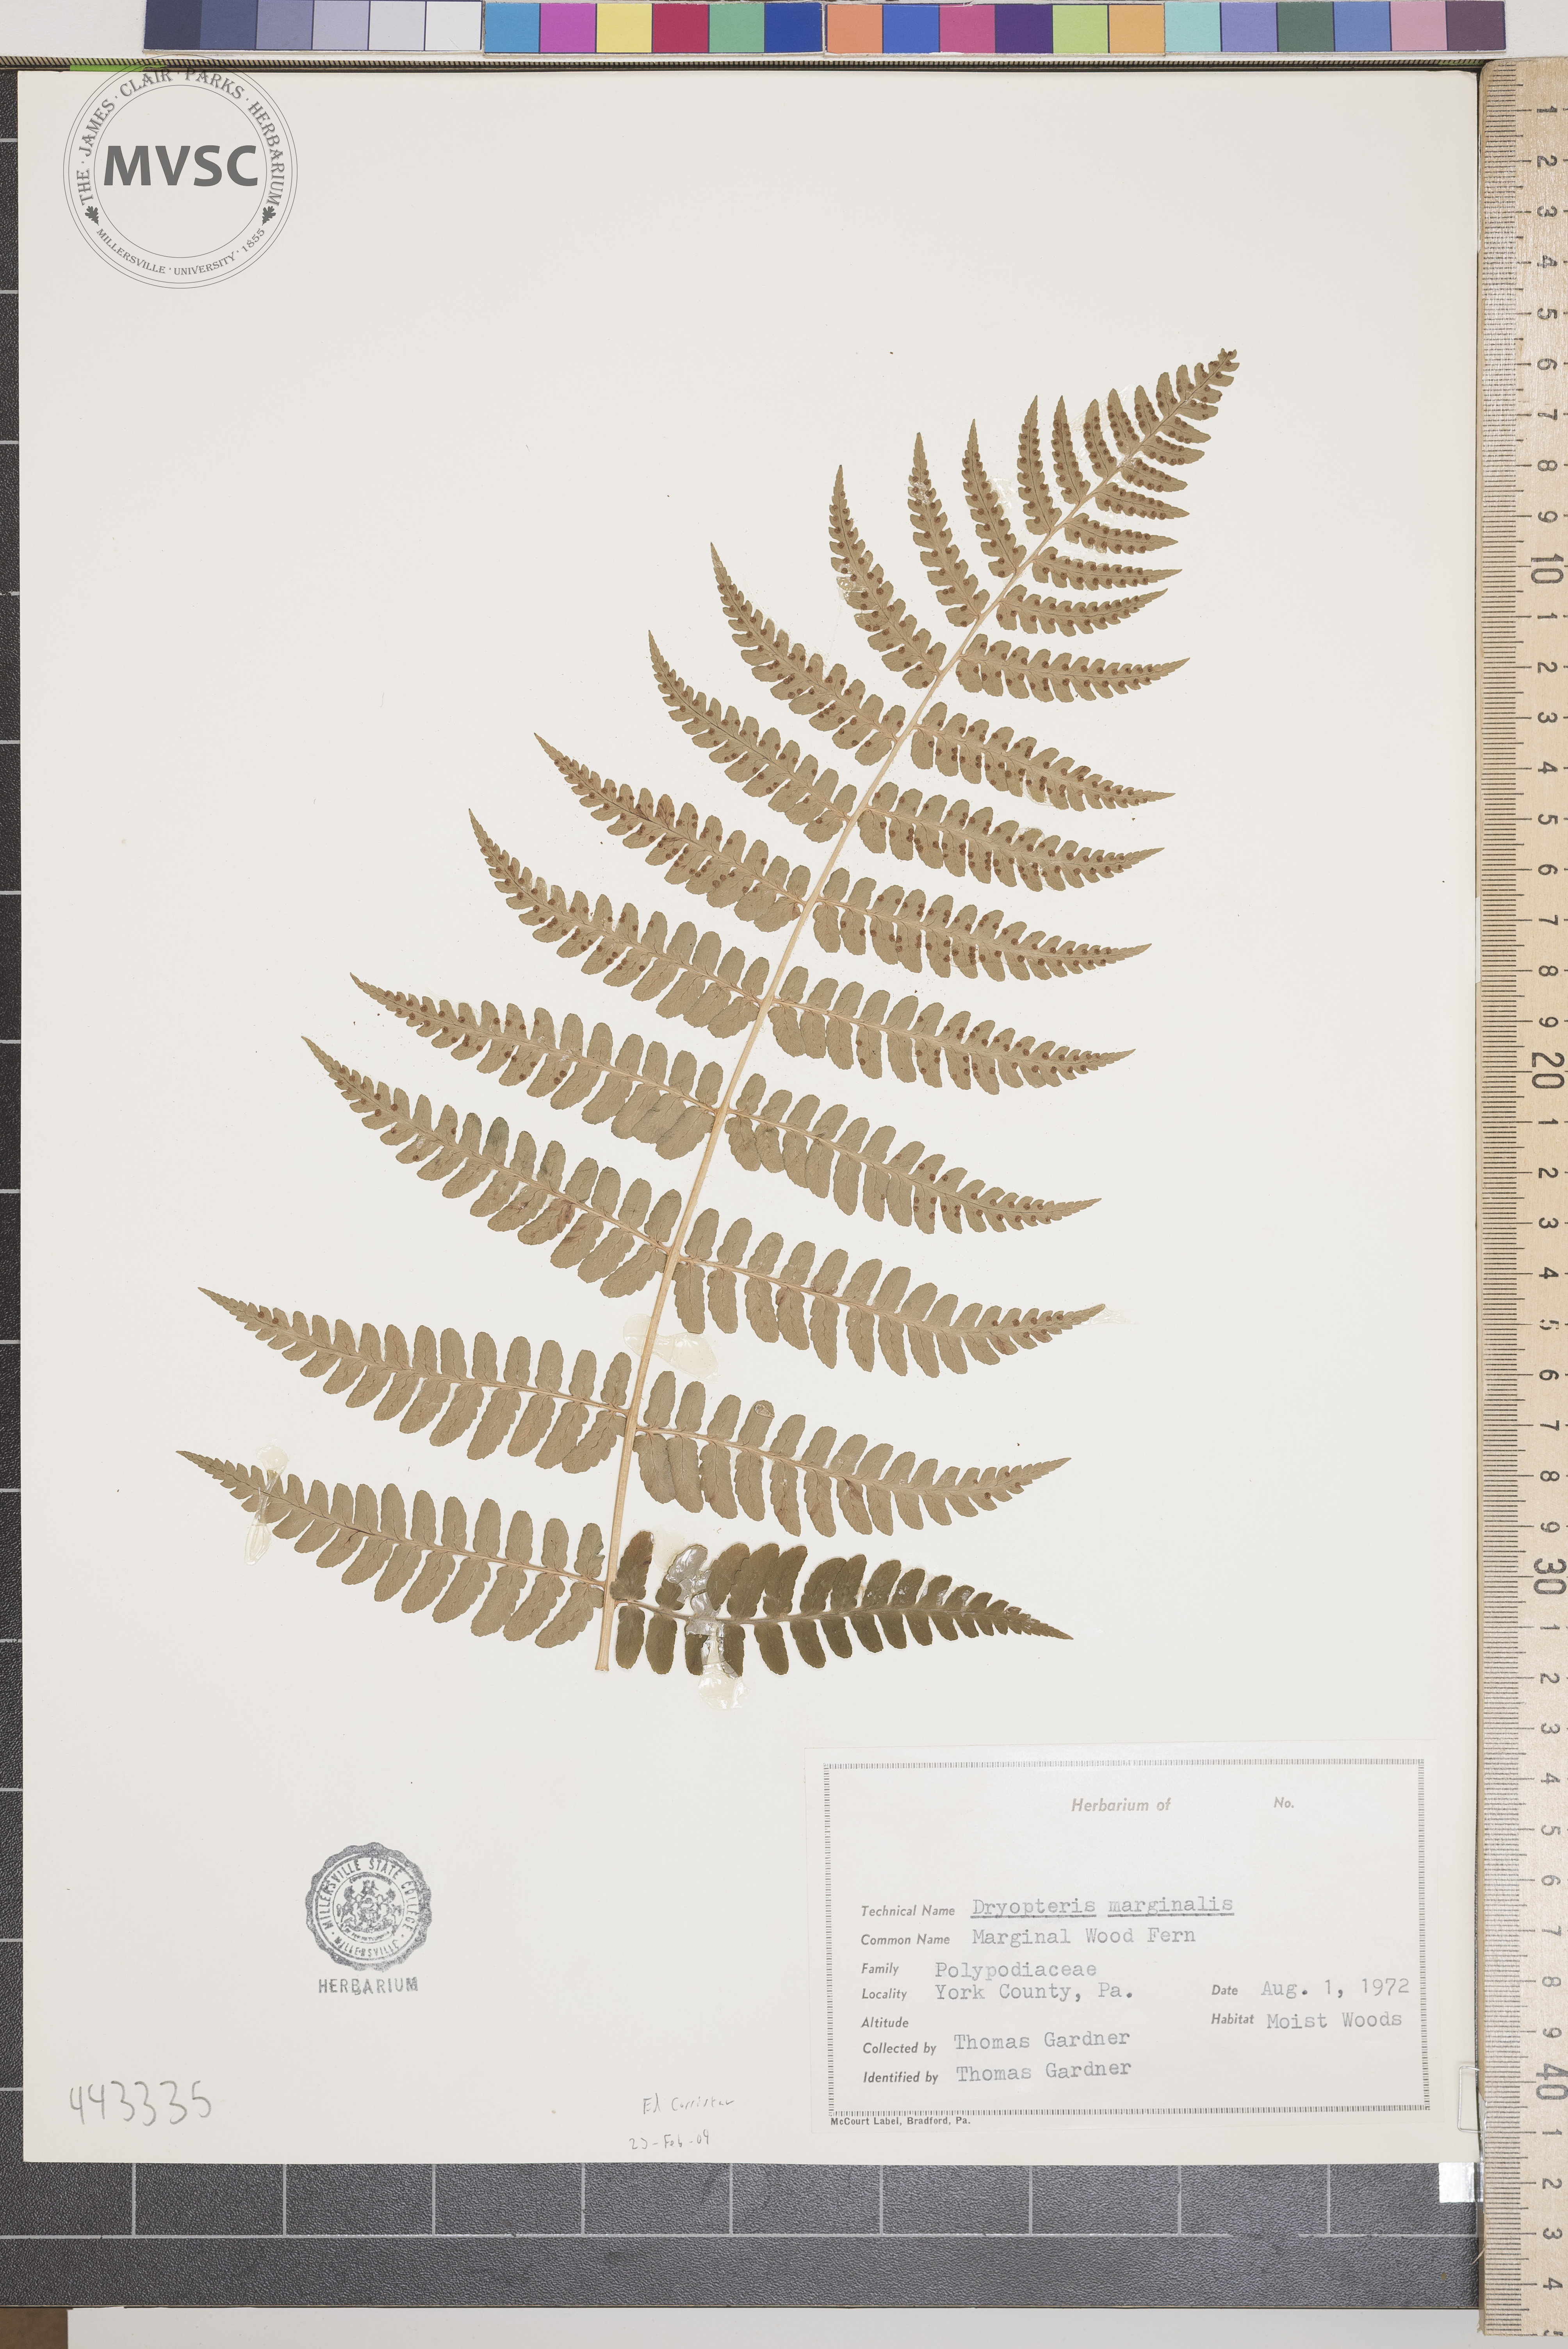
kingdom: Plantae
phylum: Tracheophyta
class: Polypodiopsida
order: Polypodiales
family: Dryopteridaceae
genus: Dryopteris
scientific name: Dryopteris marginalis
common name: Marginal Woodfern
